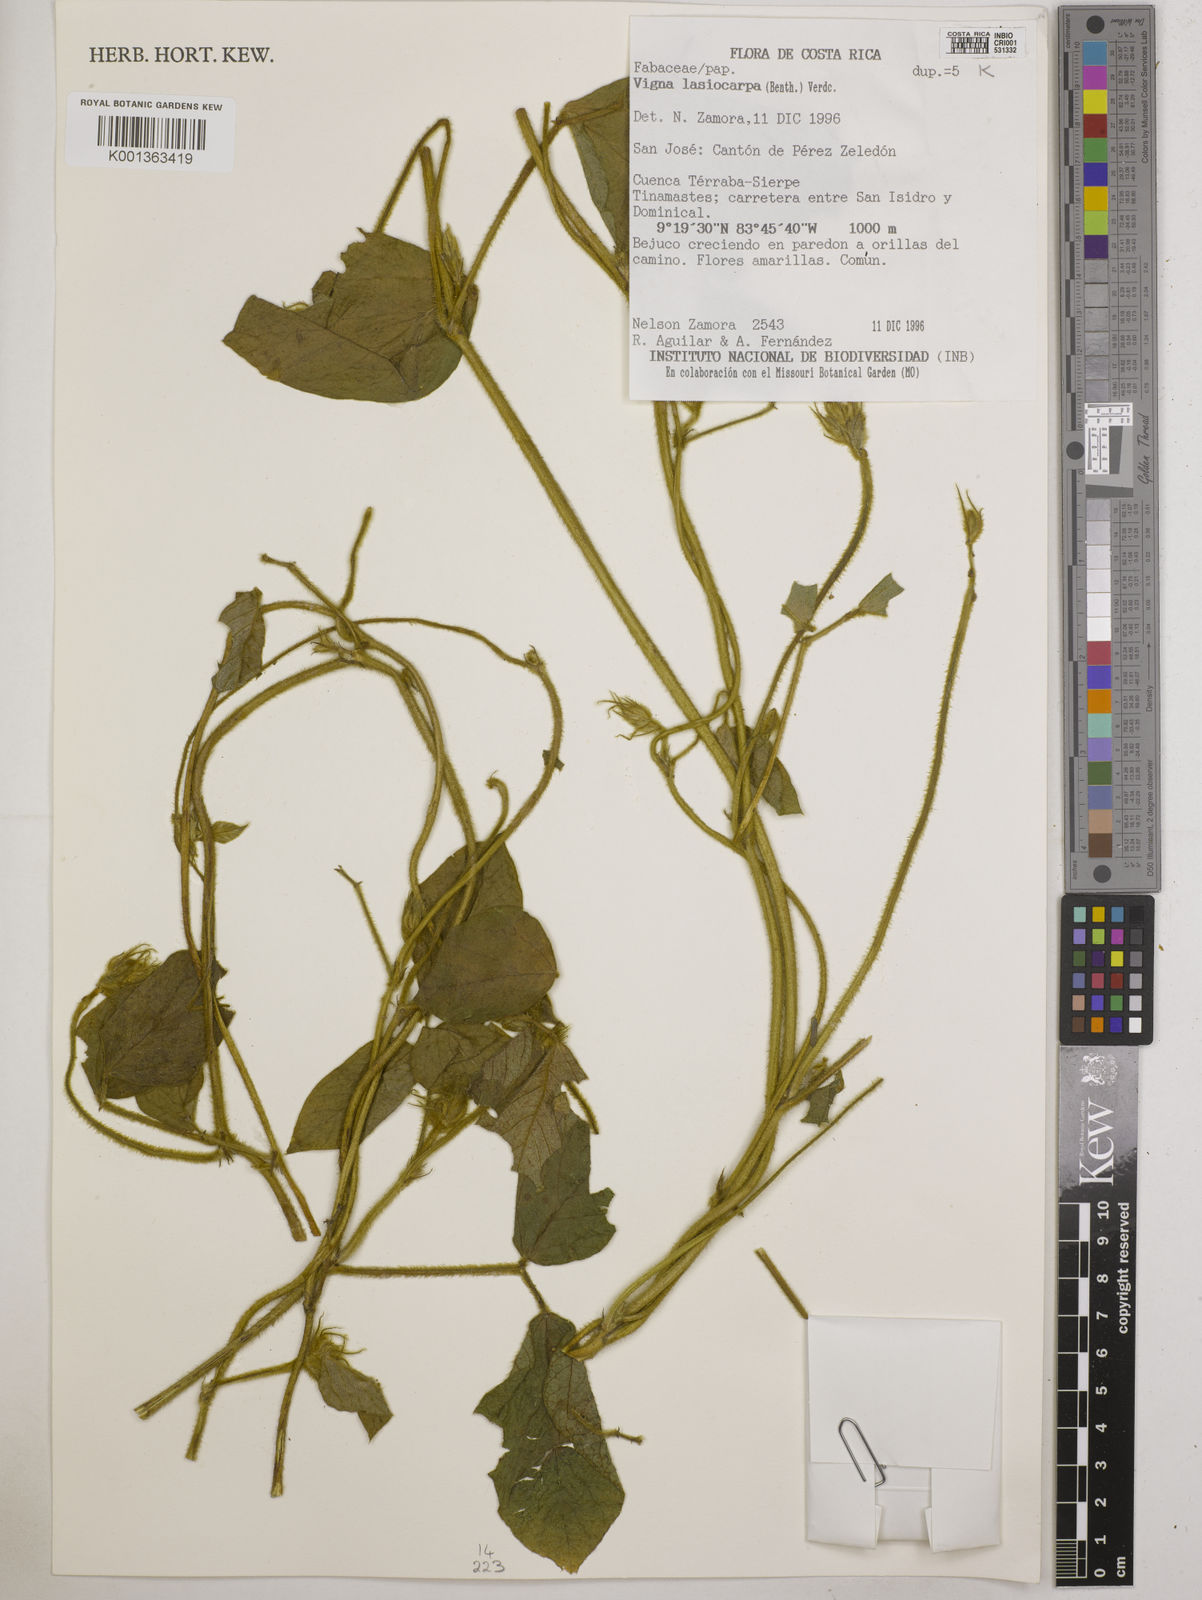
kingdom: Plantae
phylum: Tracheophyta
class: Magnoliopsida
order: Fabales
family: Fabaceae
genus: Vigna
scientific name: Vigna lasiocarpa
